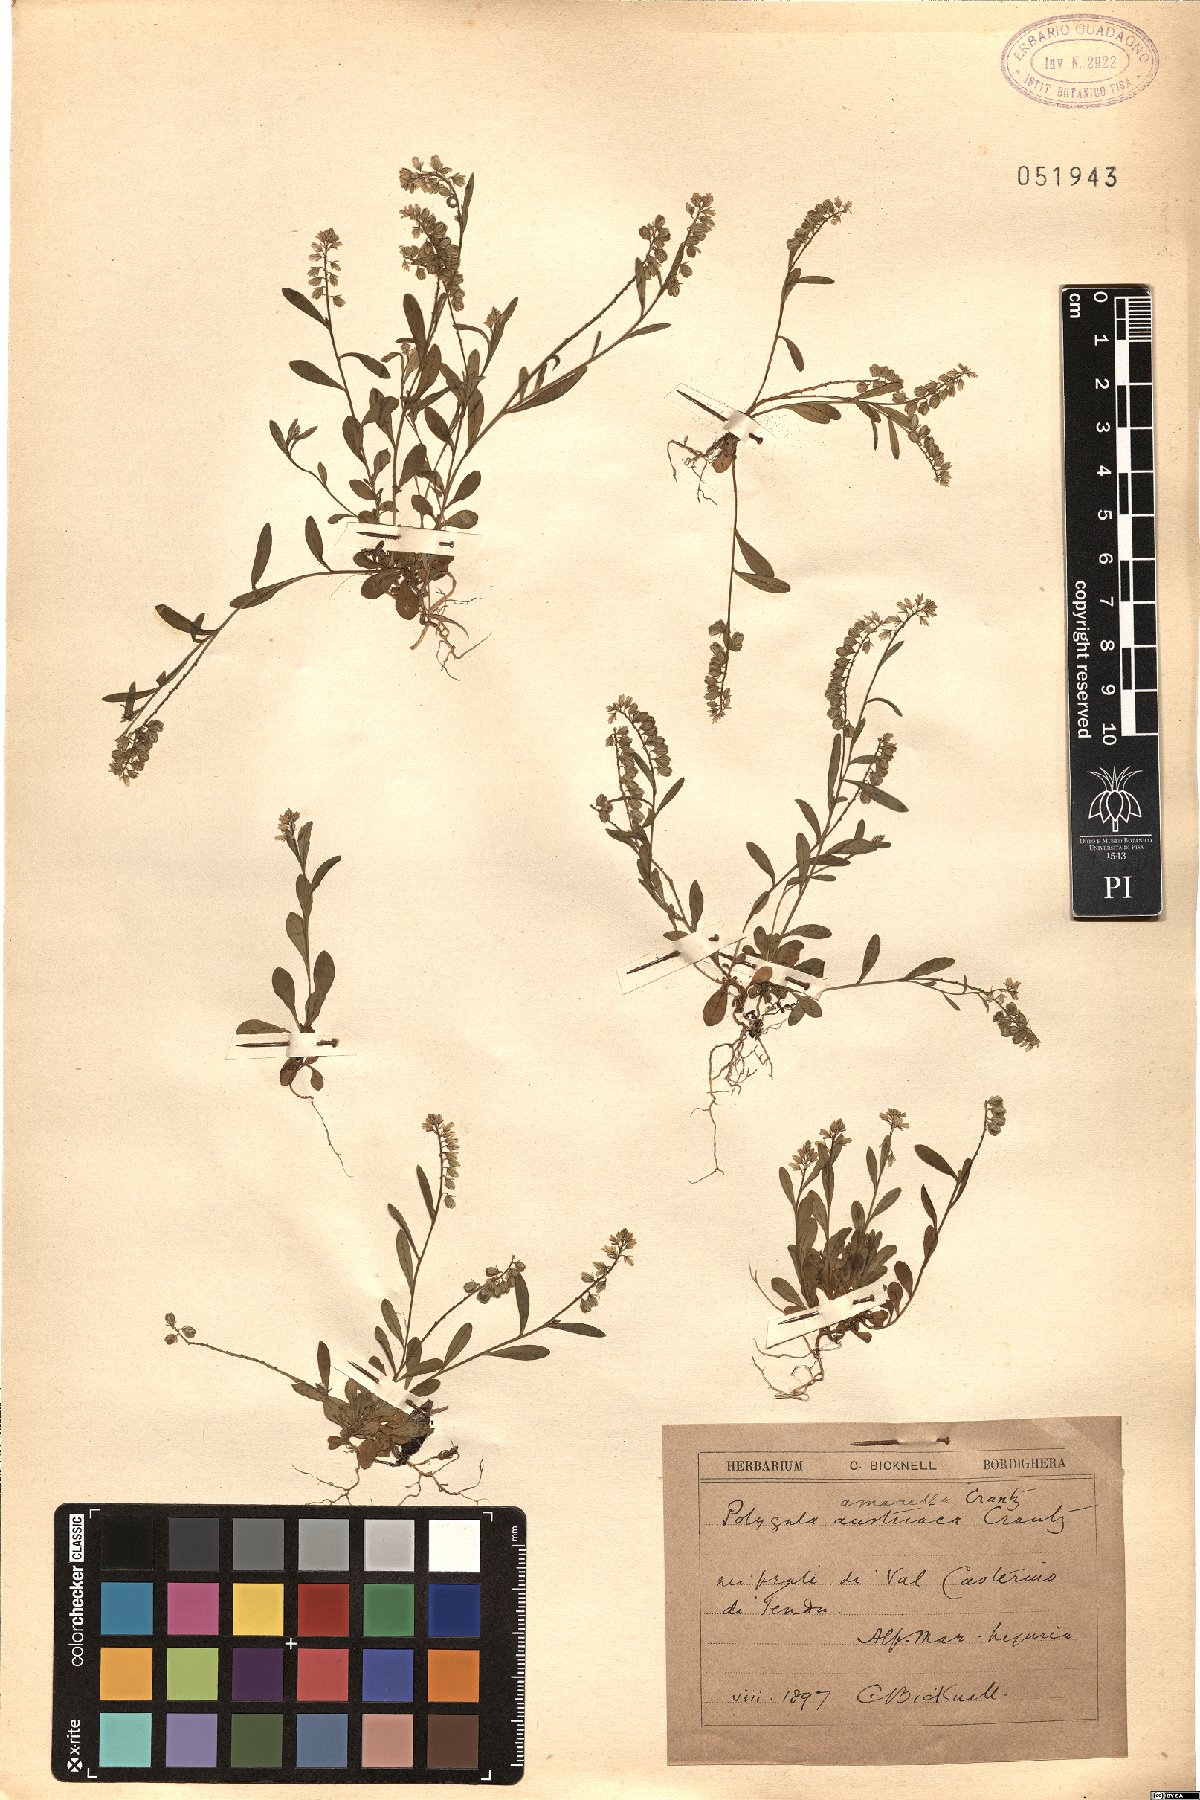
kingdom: Plantae
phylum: Tracheophyta
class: Magnoliopsida
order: Fabales
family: Polygalaceae
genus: Polygala
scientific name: Polygala amarella
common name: Dwarf milkwort
